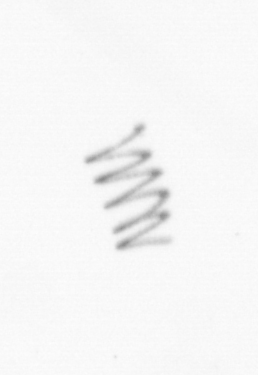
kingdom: Chromista
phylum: Ochrophyta
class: Bacillariophyceae
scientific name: Bacillariophyceae
